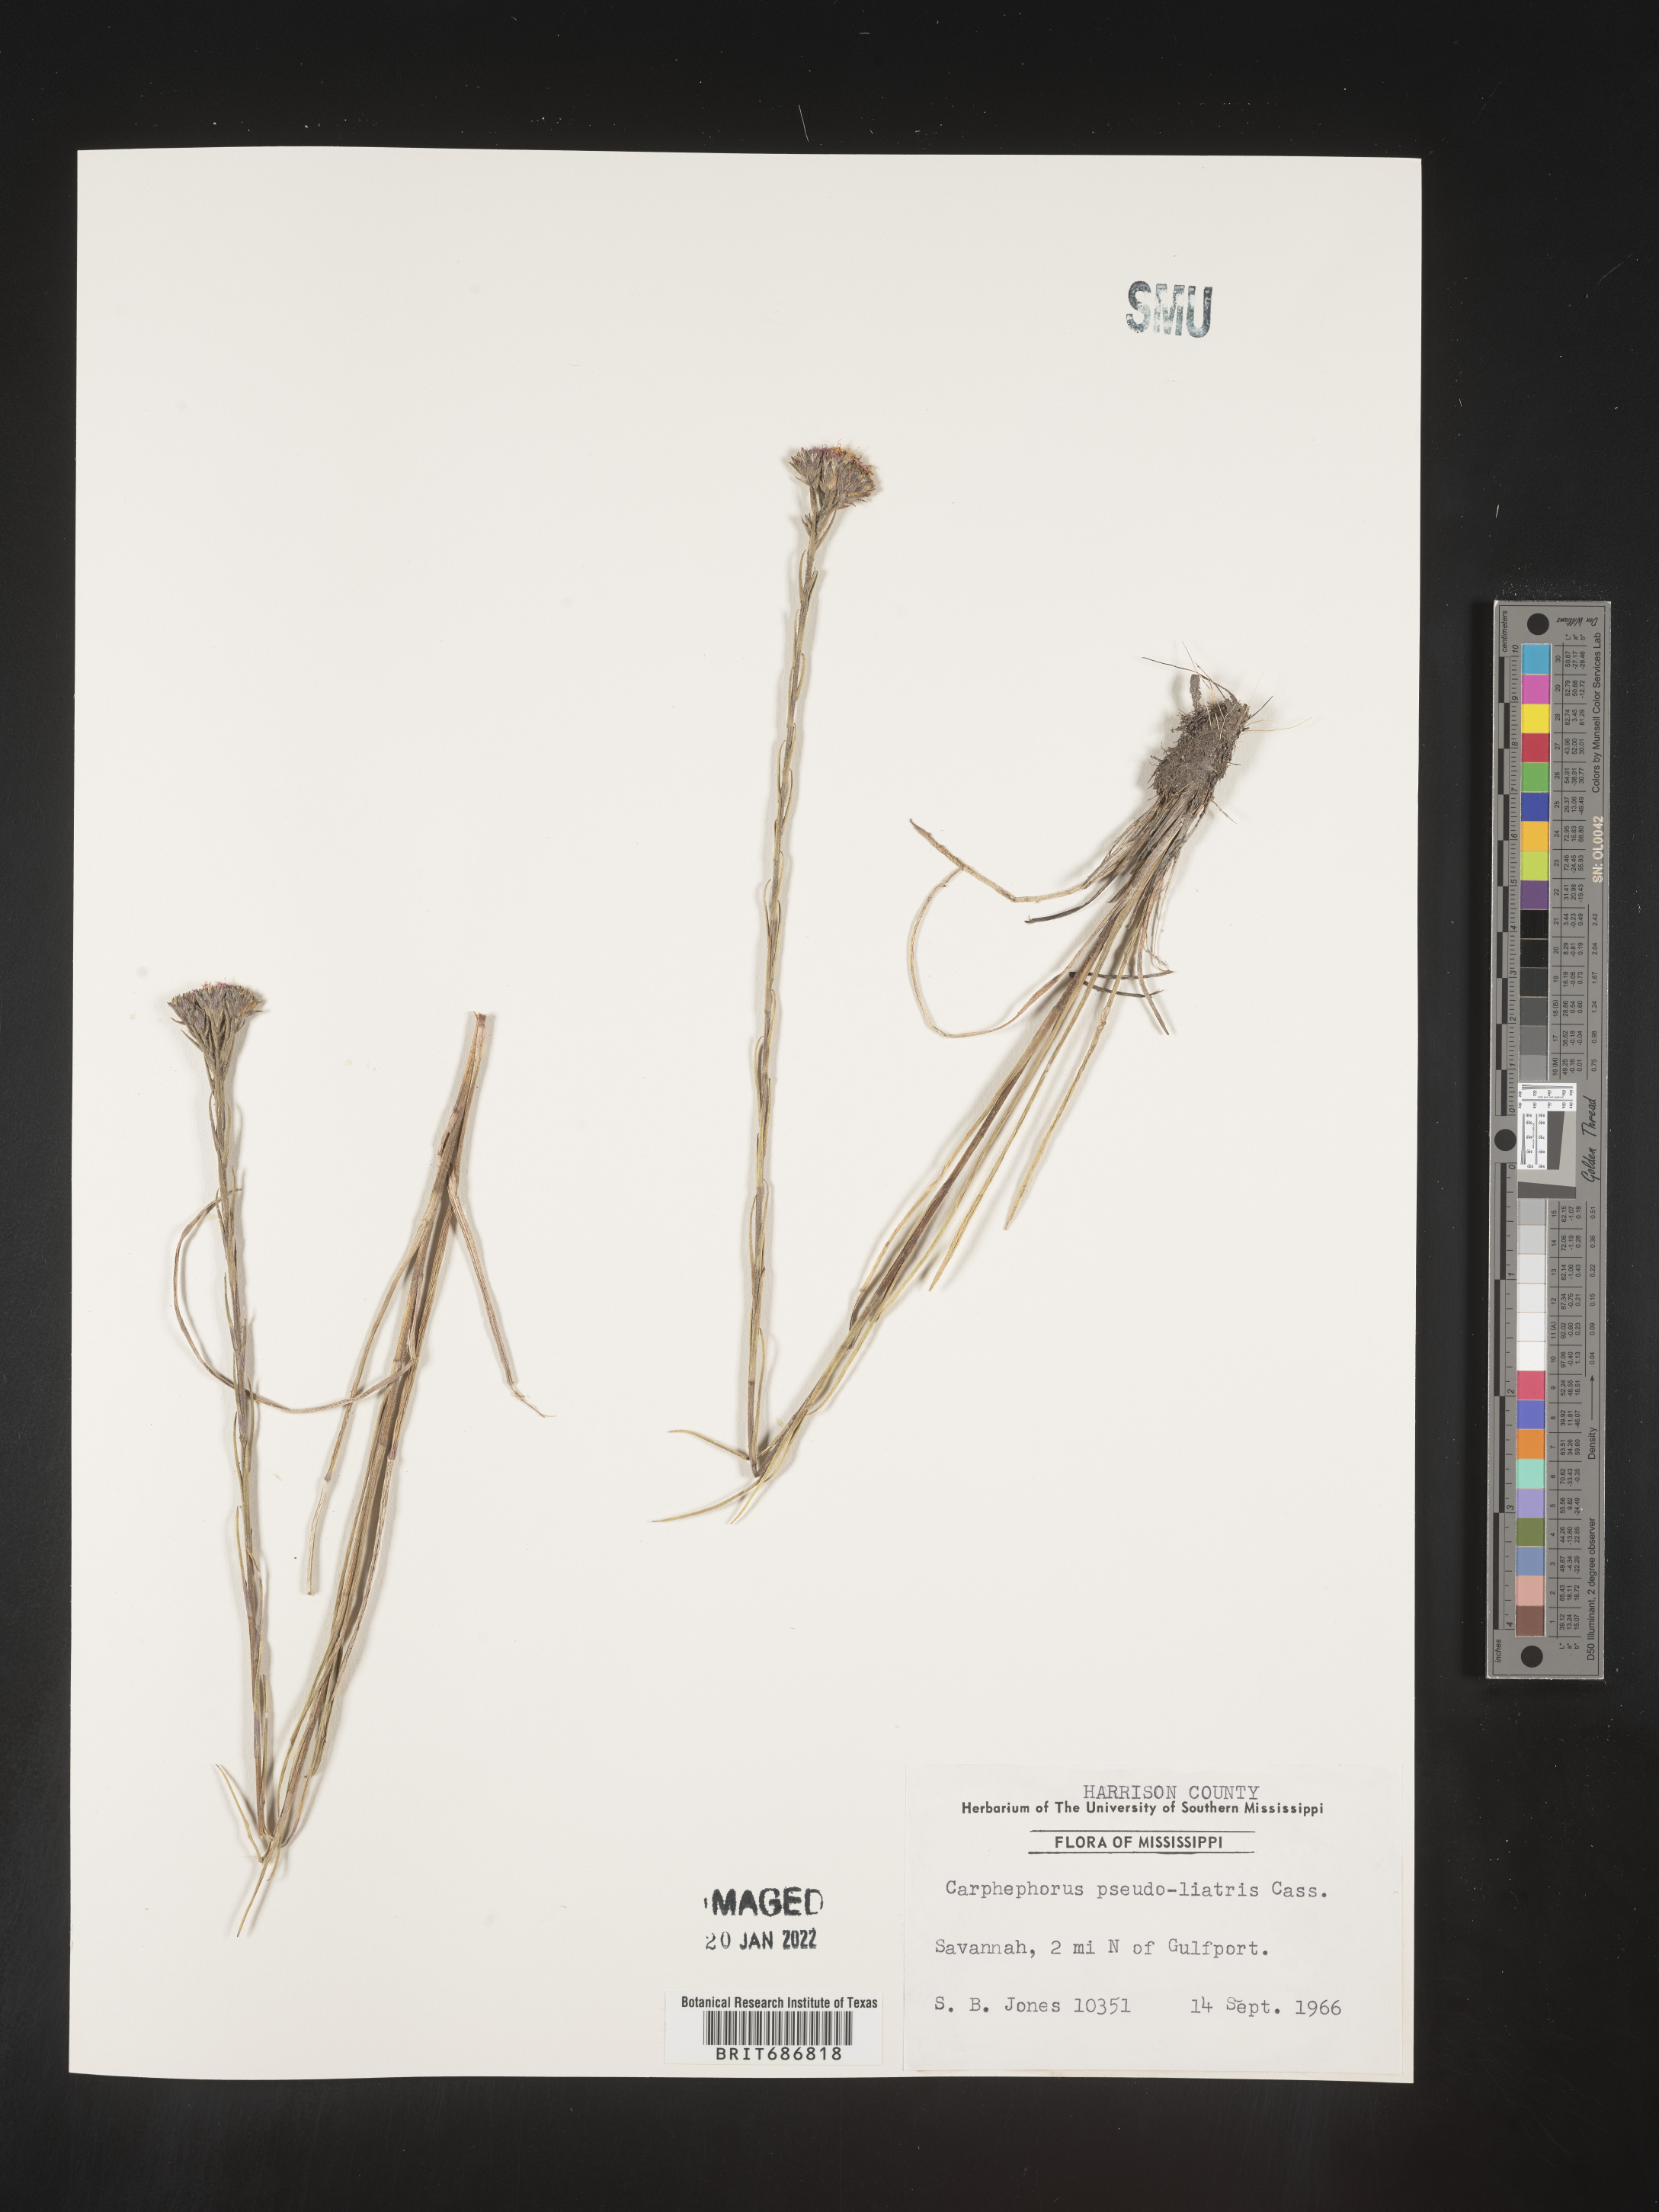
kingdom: Plantae
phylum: Tracheophyta
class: Magnoliopsida
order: Asterales
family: Asteraceae
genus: Carphephorus
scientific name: Carphephorus pseudoliatris
